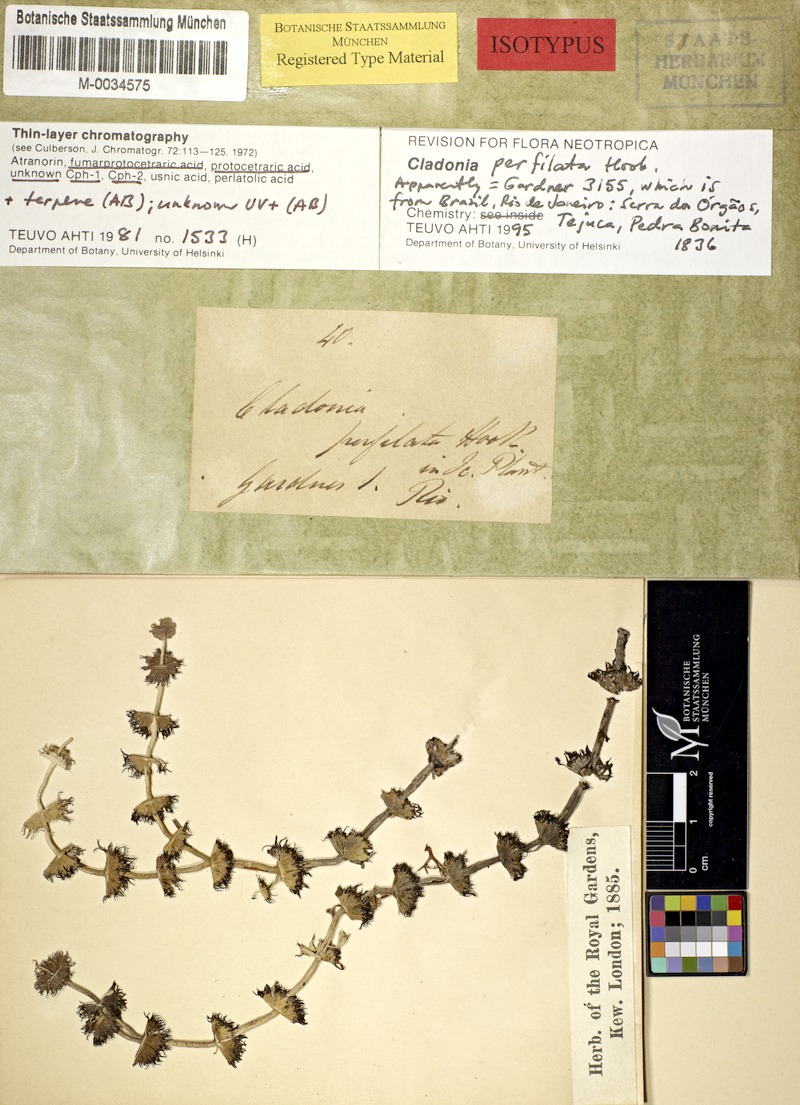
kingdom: Fungi
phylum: Ascomycota
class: Lecanoromycetes
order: Lecanorales
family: Cladoniaceae
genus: Cladonia
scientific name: Cladonia perfilata
